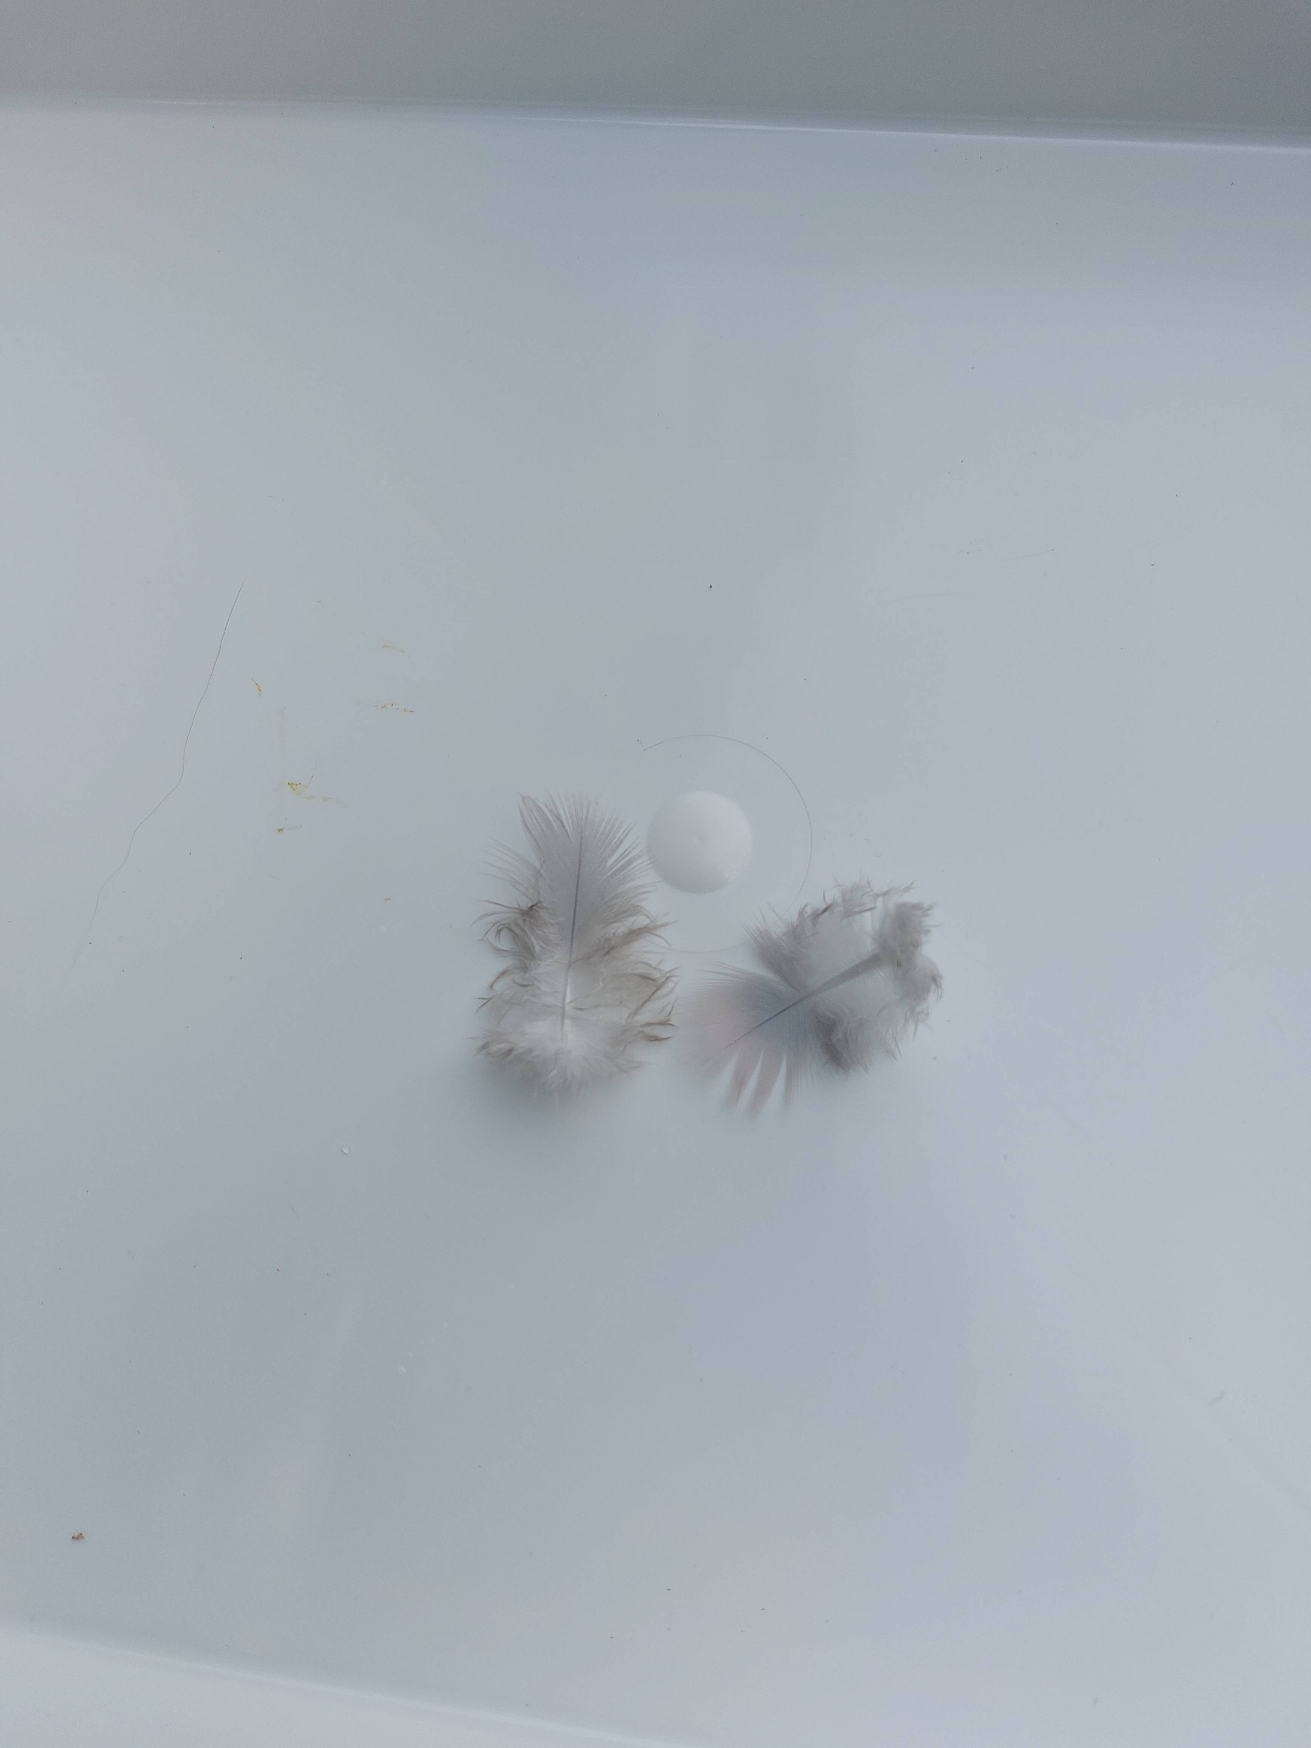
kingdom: Animalia
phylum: Chordata
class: Aves
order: Columbiformes
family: Columbidae
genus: Columba
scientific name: Columba palumbus
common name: Ringdue
